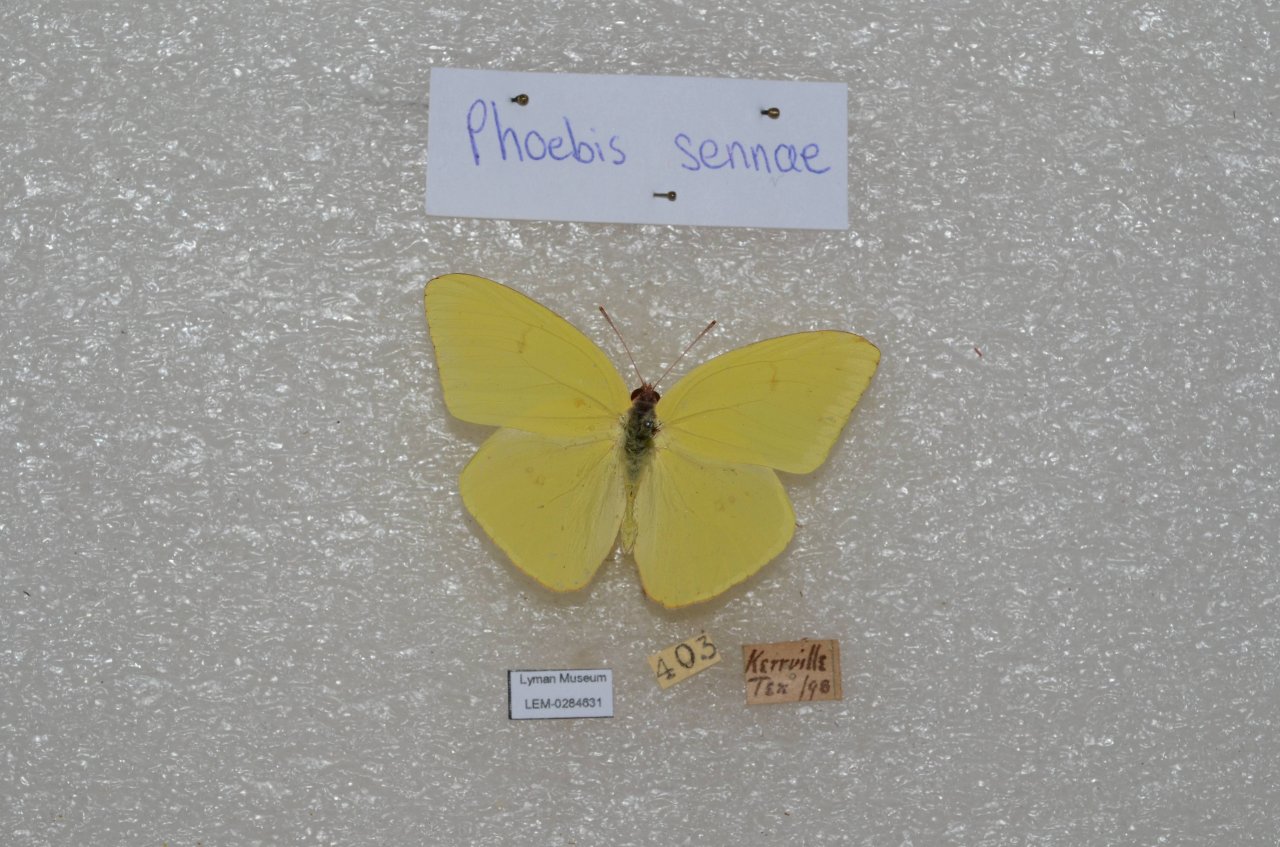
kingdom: Animalia
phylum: Arthropoda
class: Insecta
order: Lepidoptera
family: Pieridae
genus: Phoebis
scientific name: Phoebis sennae
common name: Cloudless Sulphur
